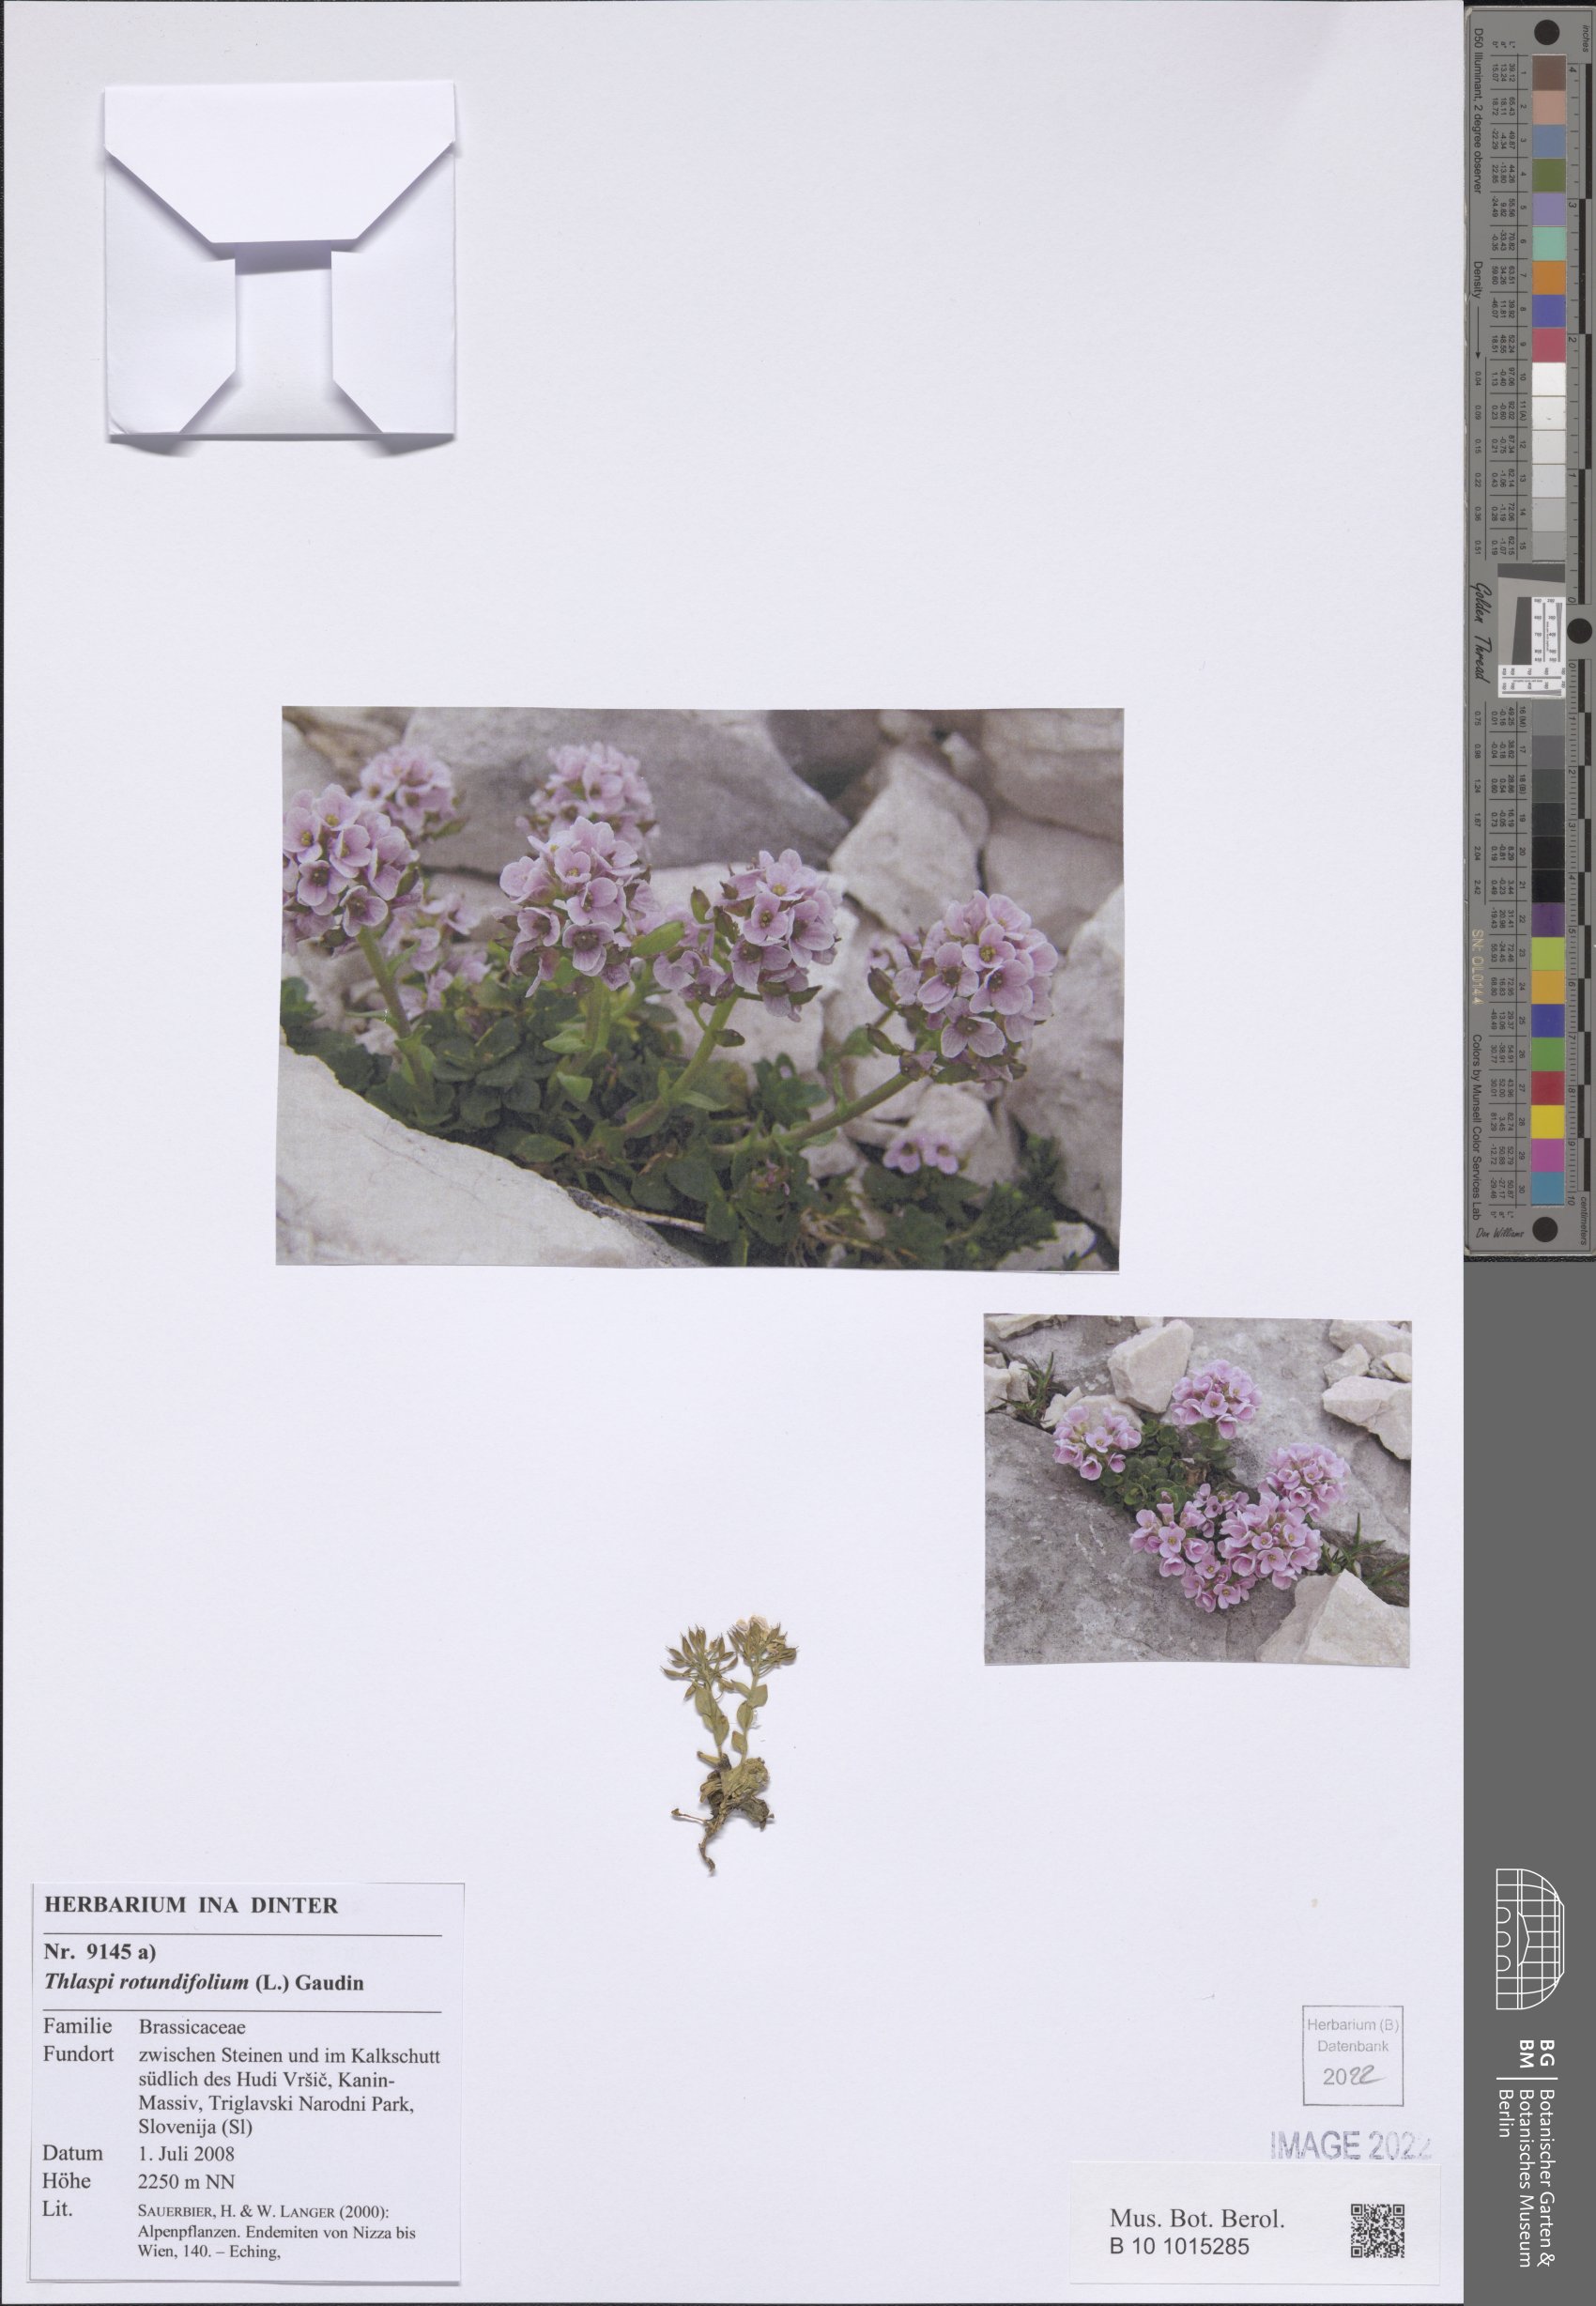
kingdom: Plantae
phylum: Tracheophyta
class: Magnoliopsida
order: Brassicales
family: Brassicaceae
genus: Noccaea
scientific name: Noccaea rotundifolia
